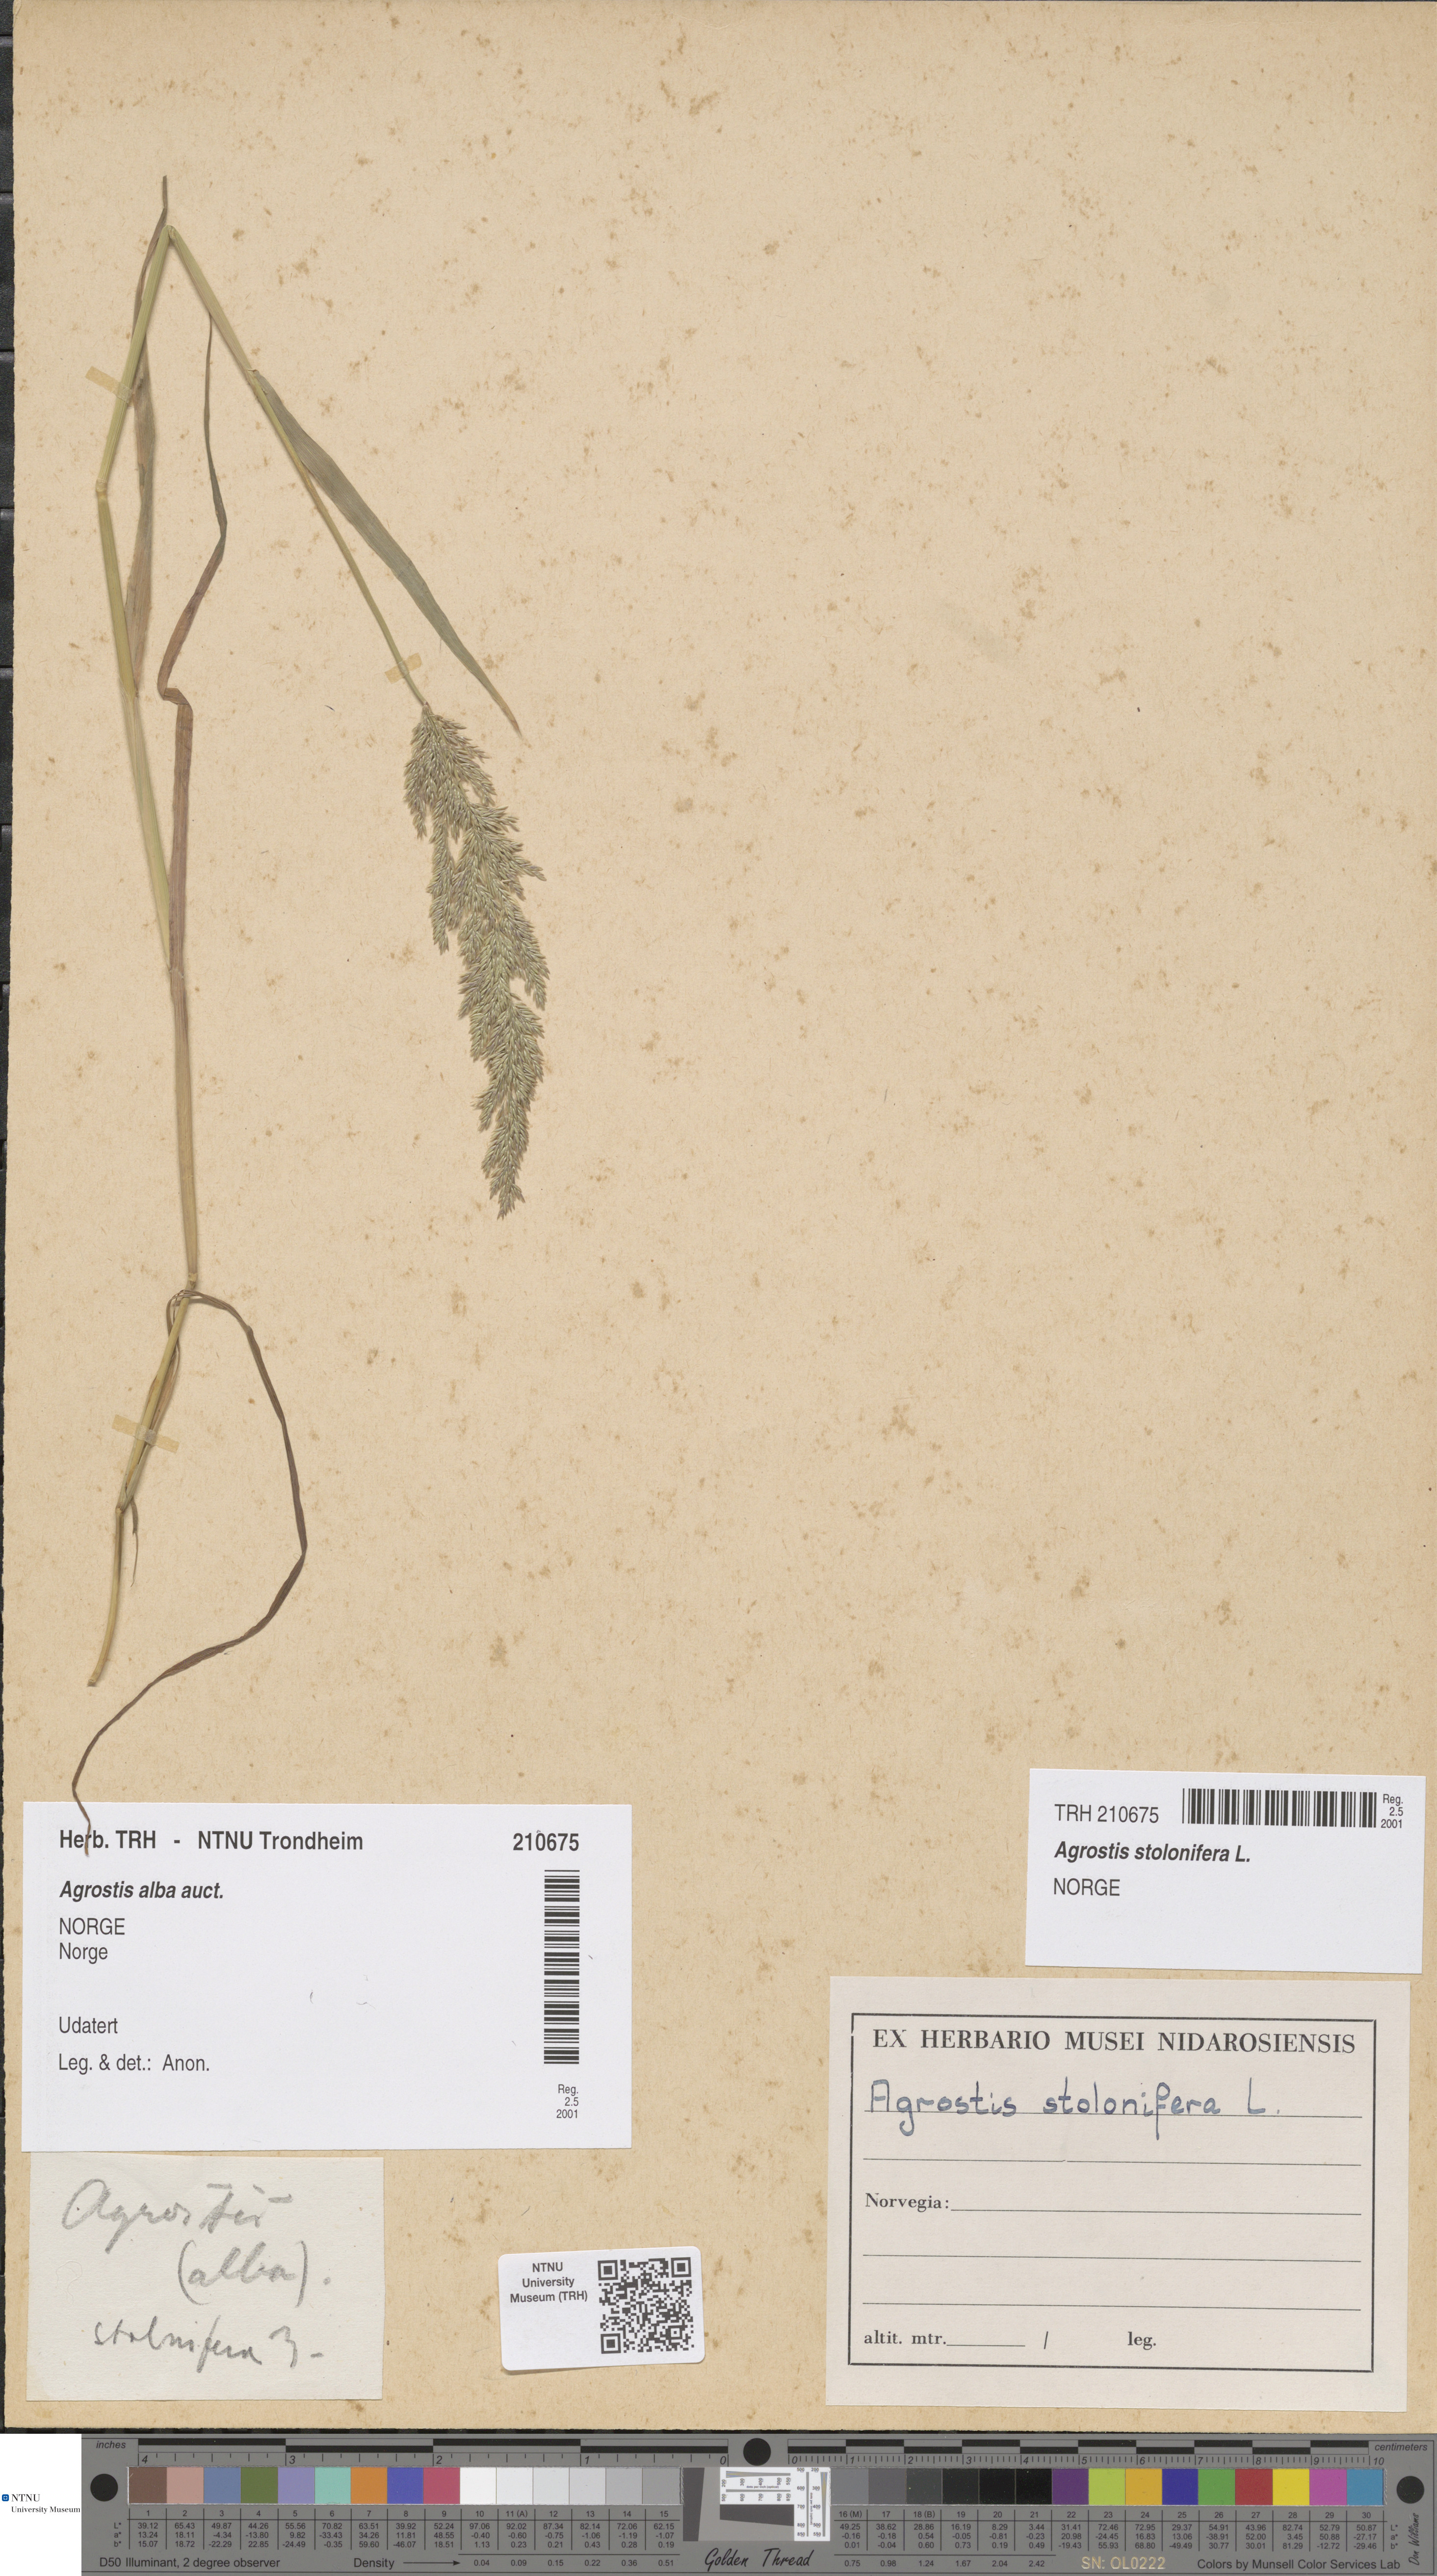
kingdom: Plantae
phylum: Tracheophyta
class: Liliopsida
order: Poales
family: Poaceae
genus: Agrostis
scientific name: Agrostis stolonifera
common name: Creeping bentgrass
